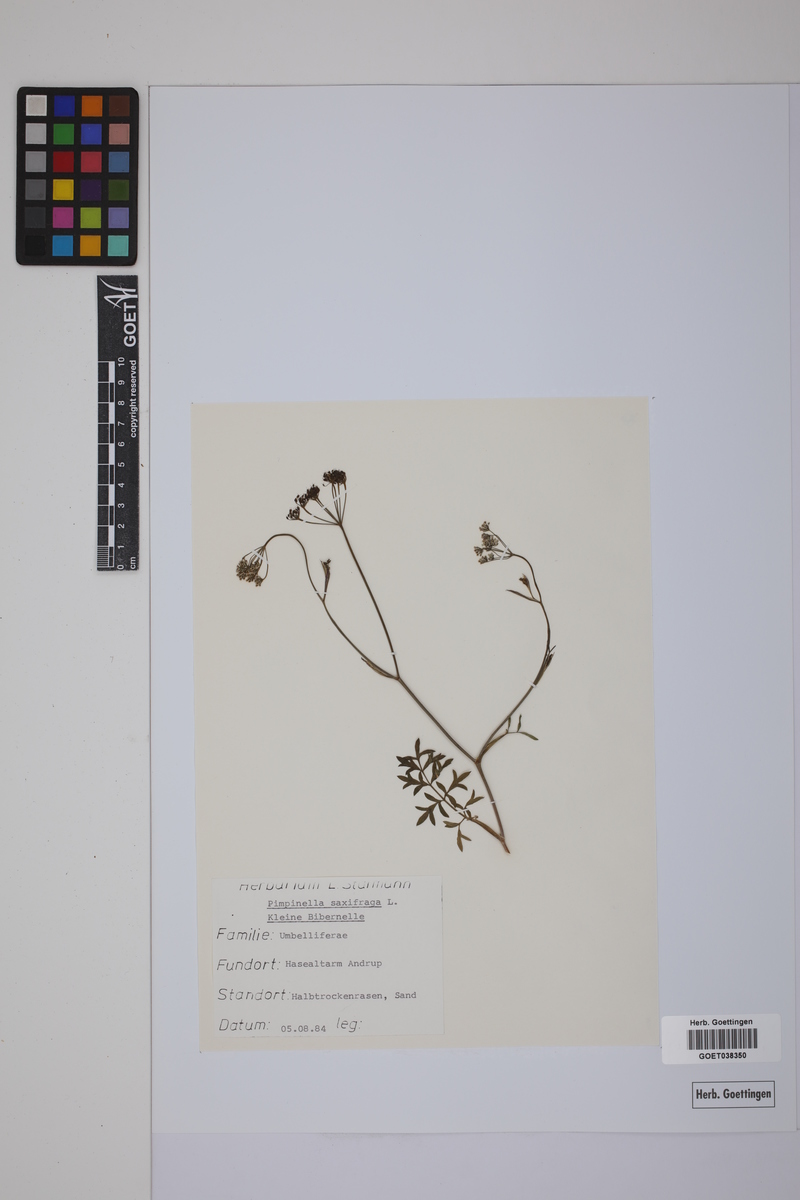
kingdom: Plantae
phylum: Tracheophyta
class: Magnoliopsida
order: Apiales
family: Apiaceae
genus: Pimpinella
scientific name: Pimpinella saxifraga
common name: Burnet-saxifrage
